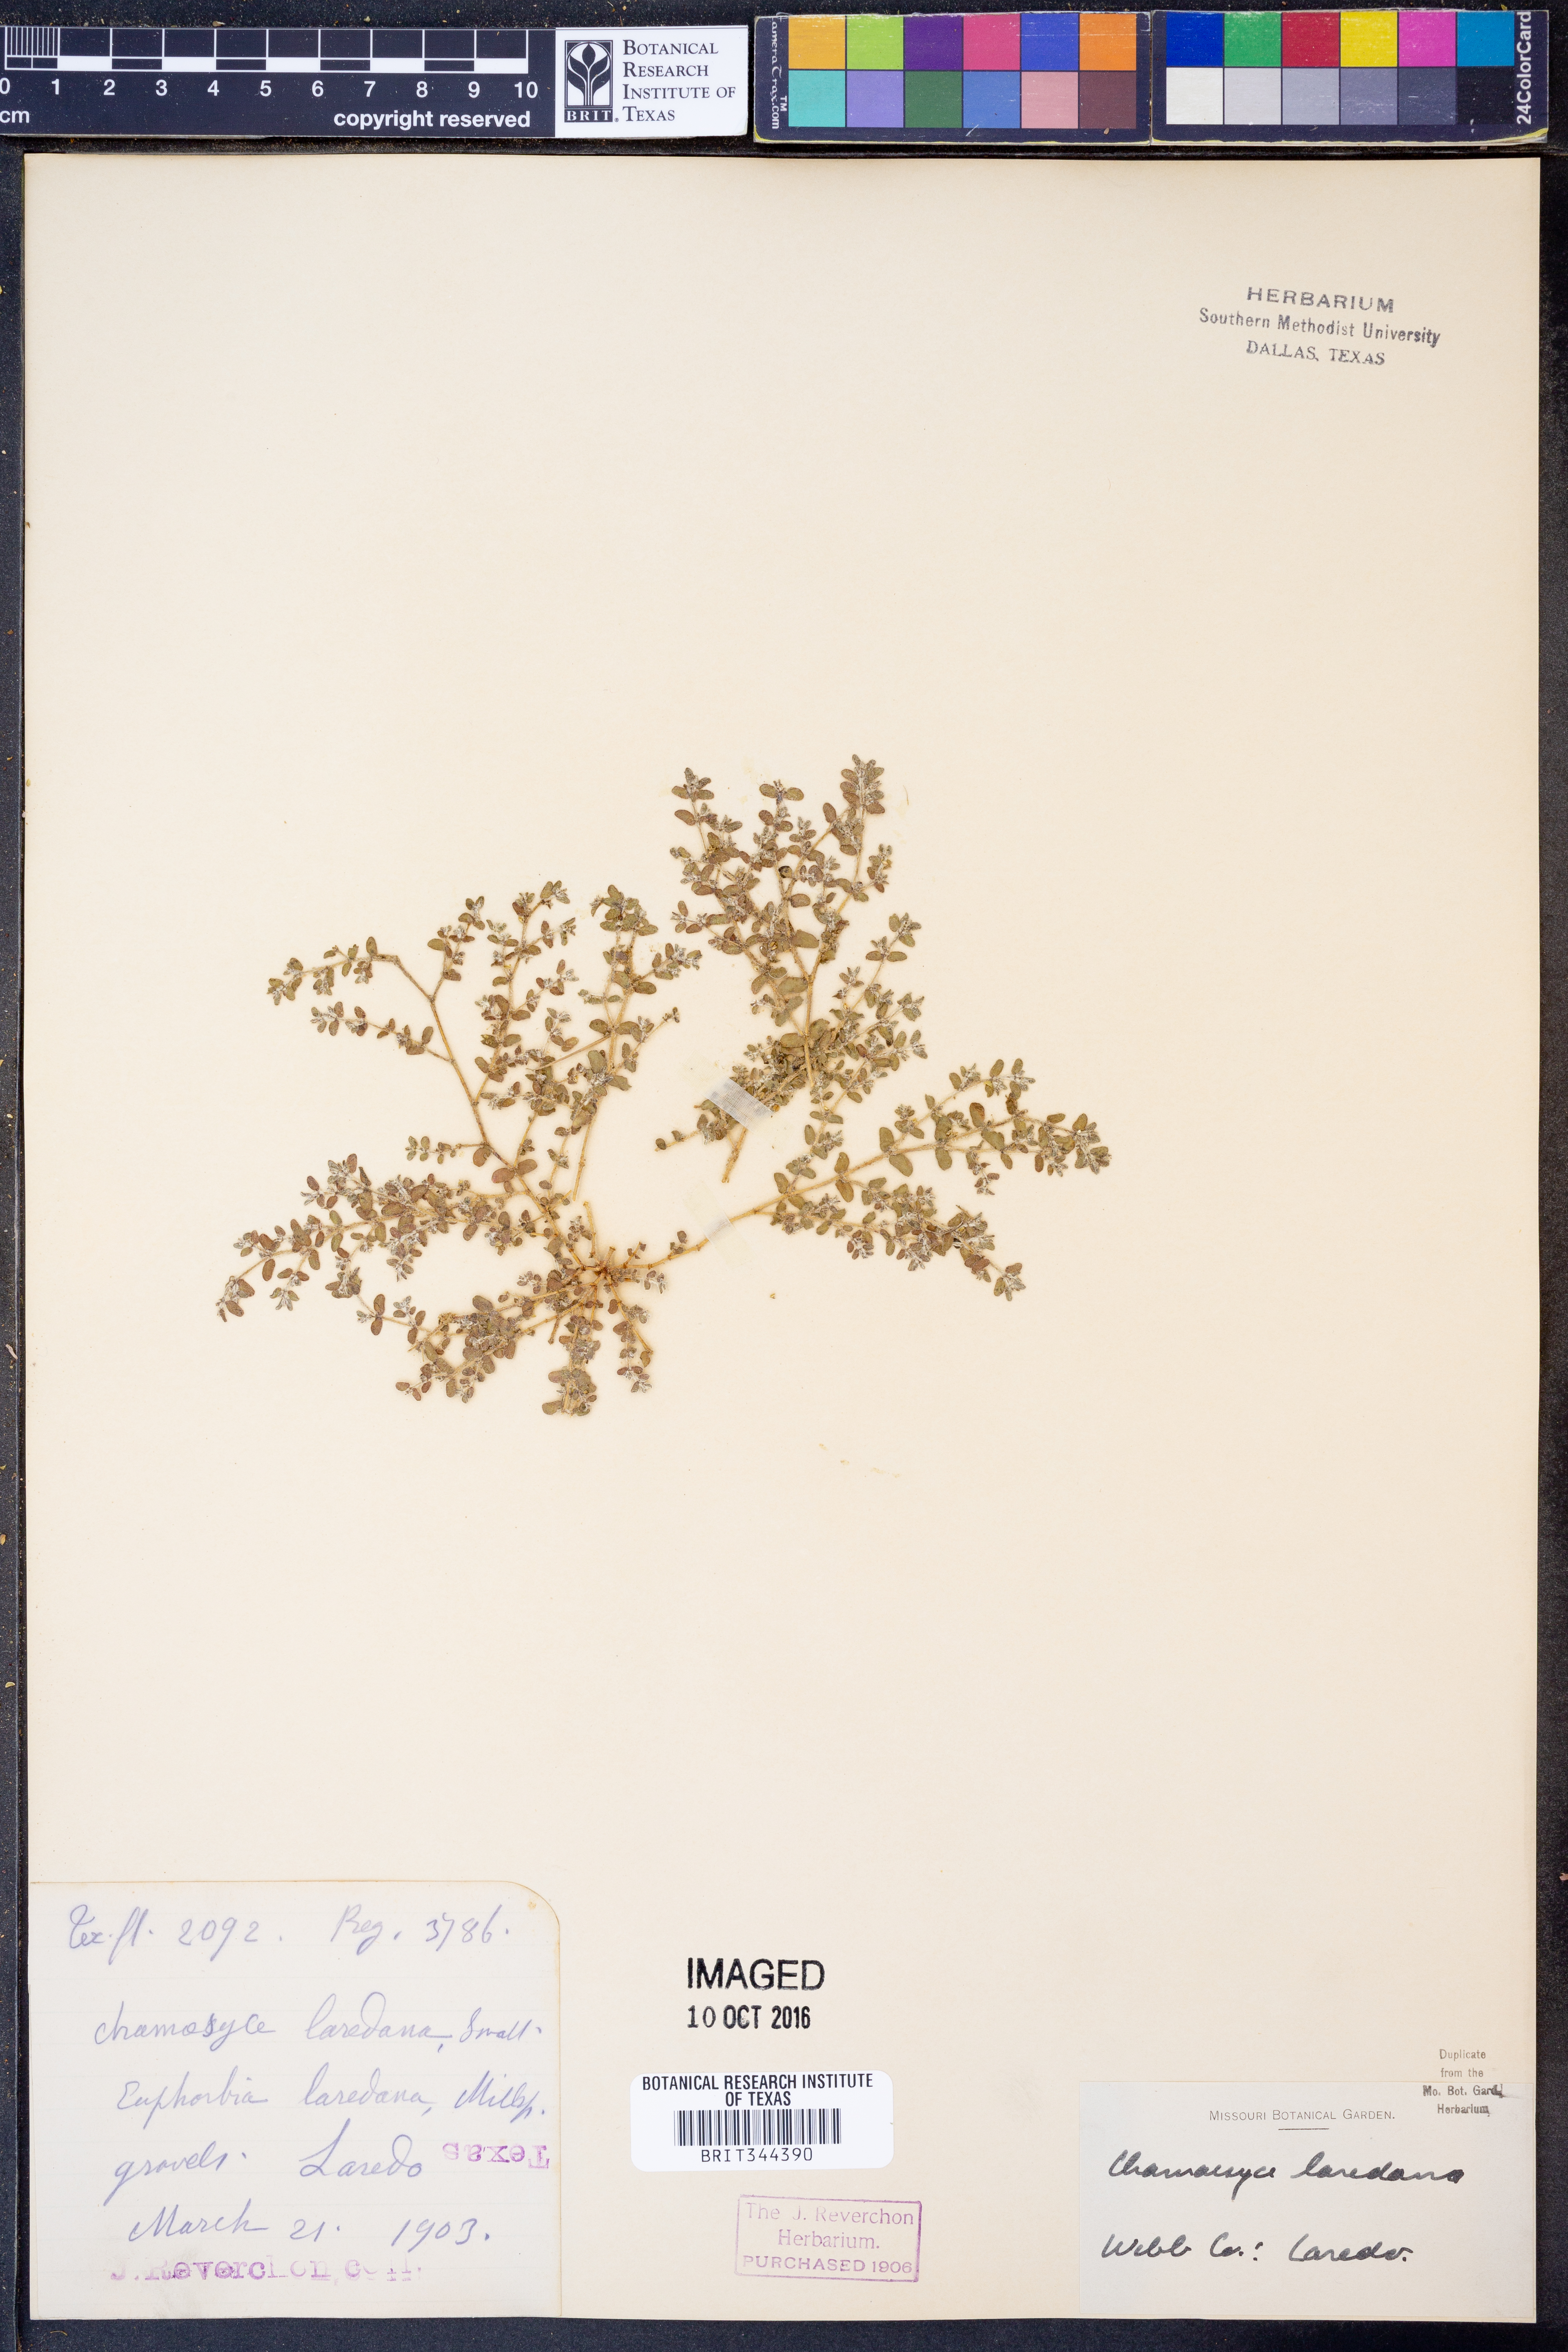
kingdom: Plantae
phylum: Tracheophyta
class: Magnoliopsida
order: Malpighiales
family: Euphorbiaceae
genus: Euphorbia
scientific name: Euphorbia laredana
